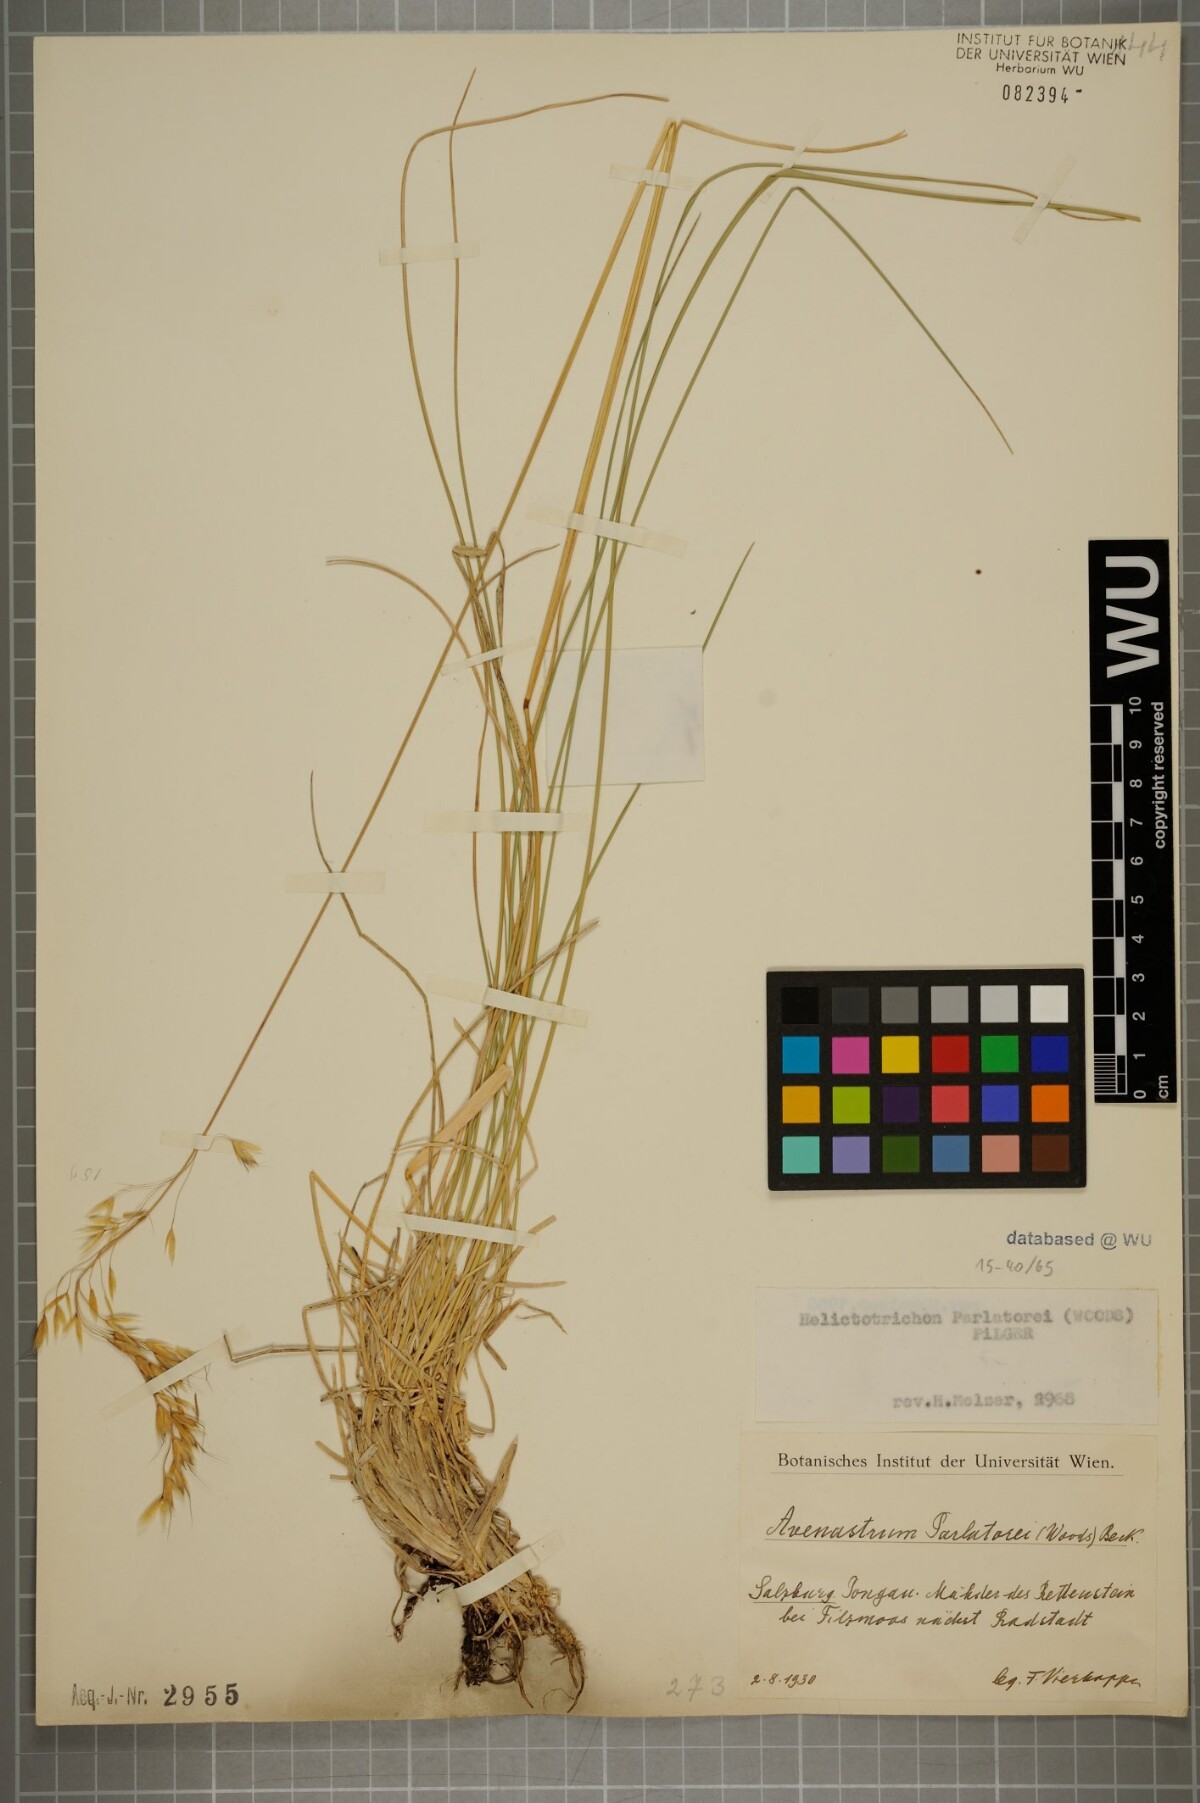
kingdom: Plantae
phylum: Tracheophyta
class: Liliopsida
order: Poales
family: Poaceae
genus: Helictotrichon
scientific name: Helictotrichon parlatorei
